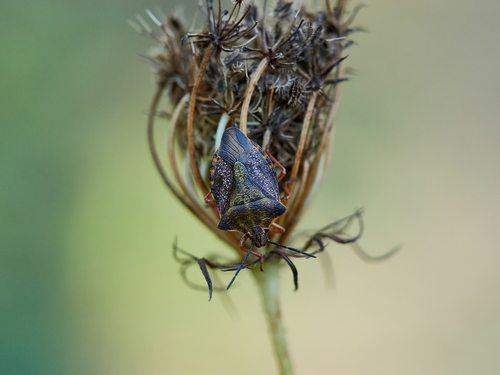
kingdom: Animalia
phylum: Arthropoda
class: Insecta
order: Hemiptera
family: Pentatomidae
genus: Carpocoris
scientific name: Carpocoris mediterraneus
